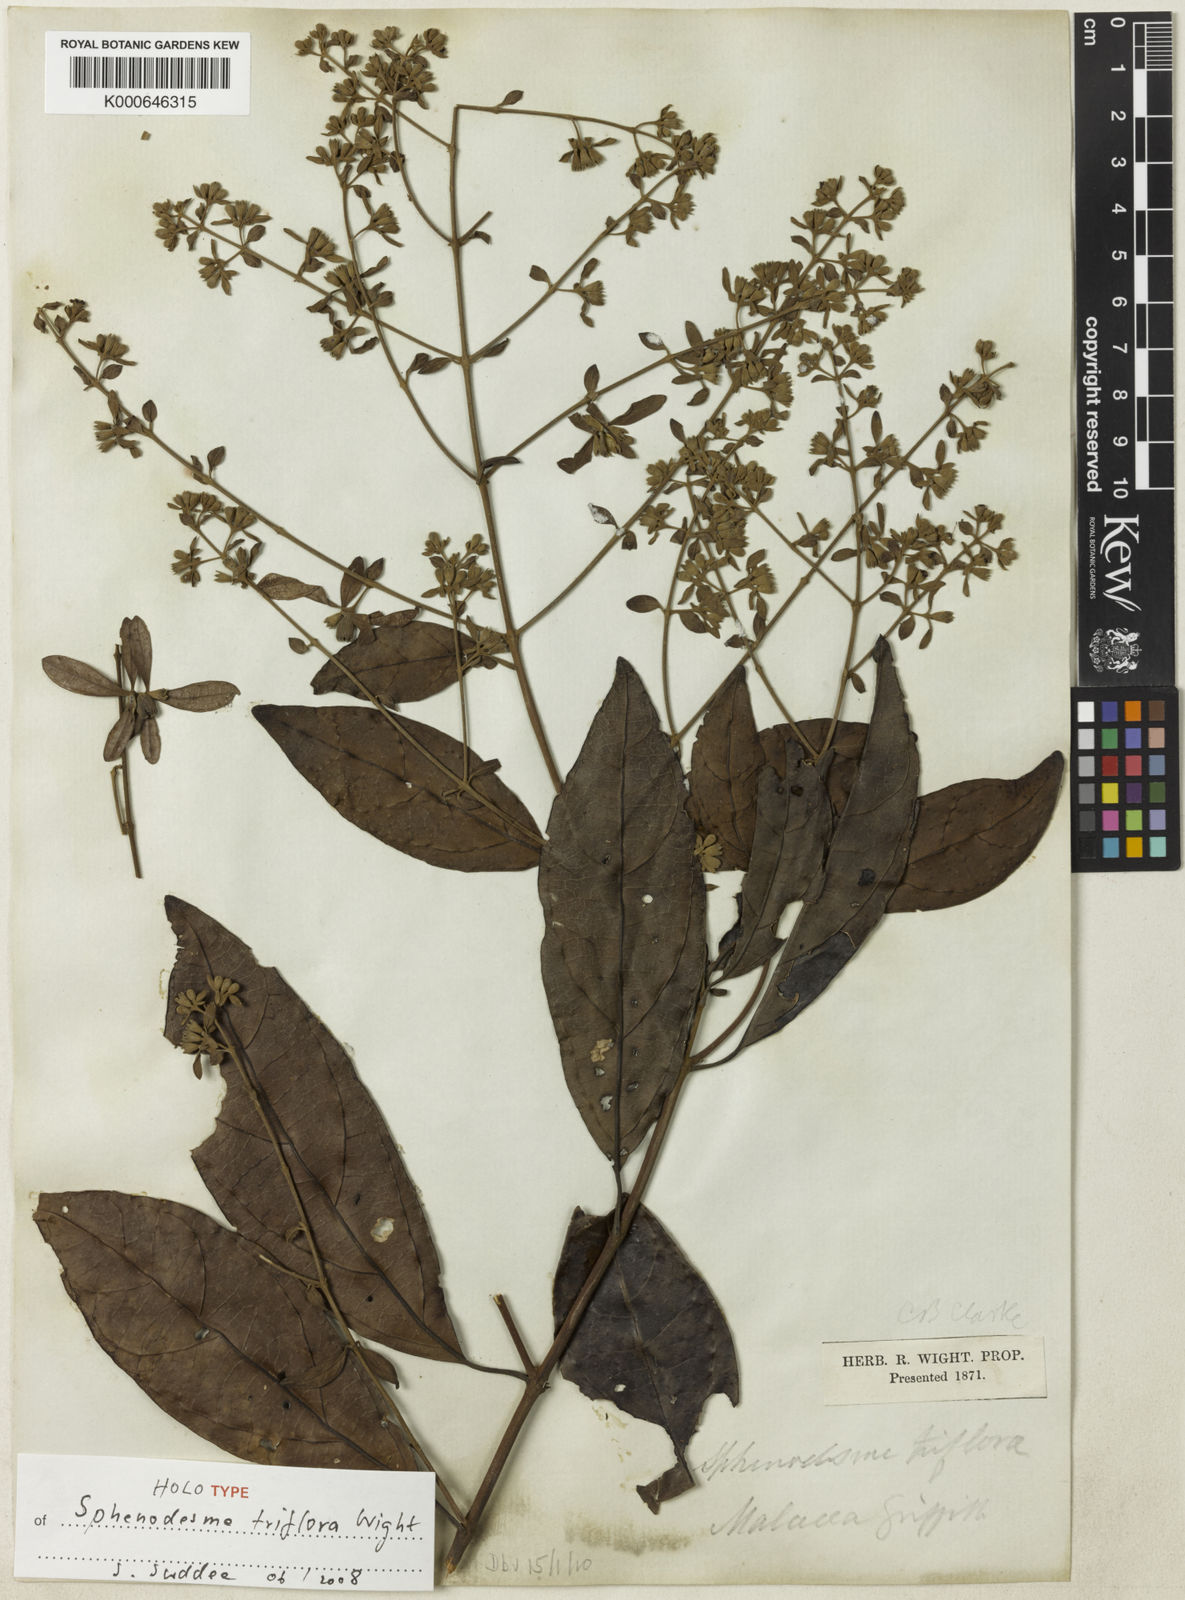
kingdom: Plantae
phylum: Tracheophyta
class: Magnoliopsida
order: Lamiales
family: Lamiaceae
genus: Sphenodesme
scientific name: Sphenodesme triflora
